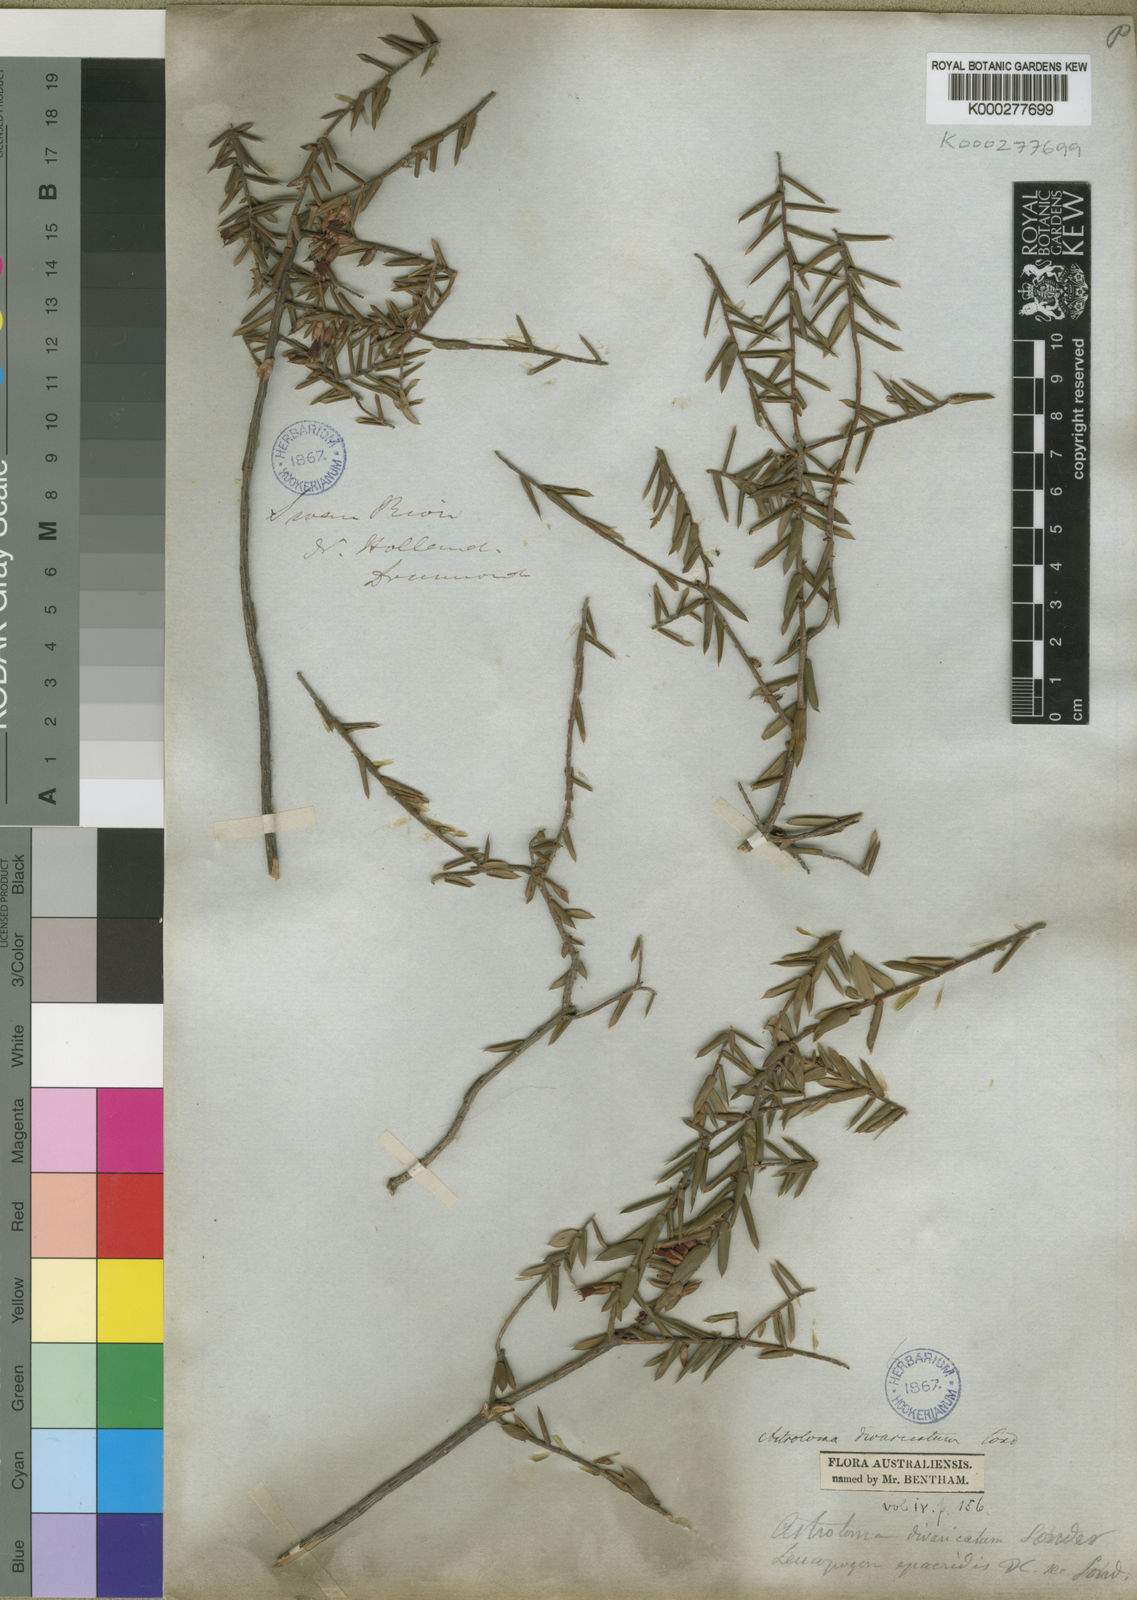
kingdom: Plantae
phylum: Tracheophyta
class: Magnoliopsida
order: Ericales
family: Ericaceae
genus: Styphelia
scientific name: Styphelia epacridis
